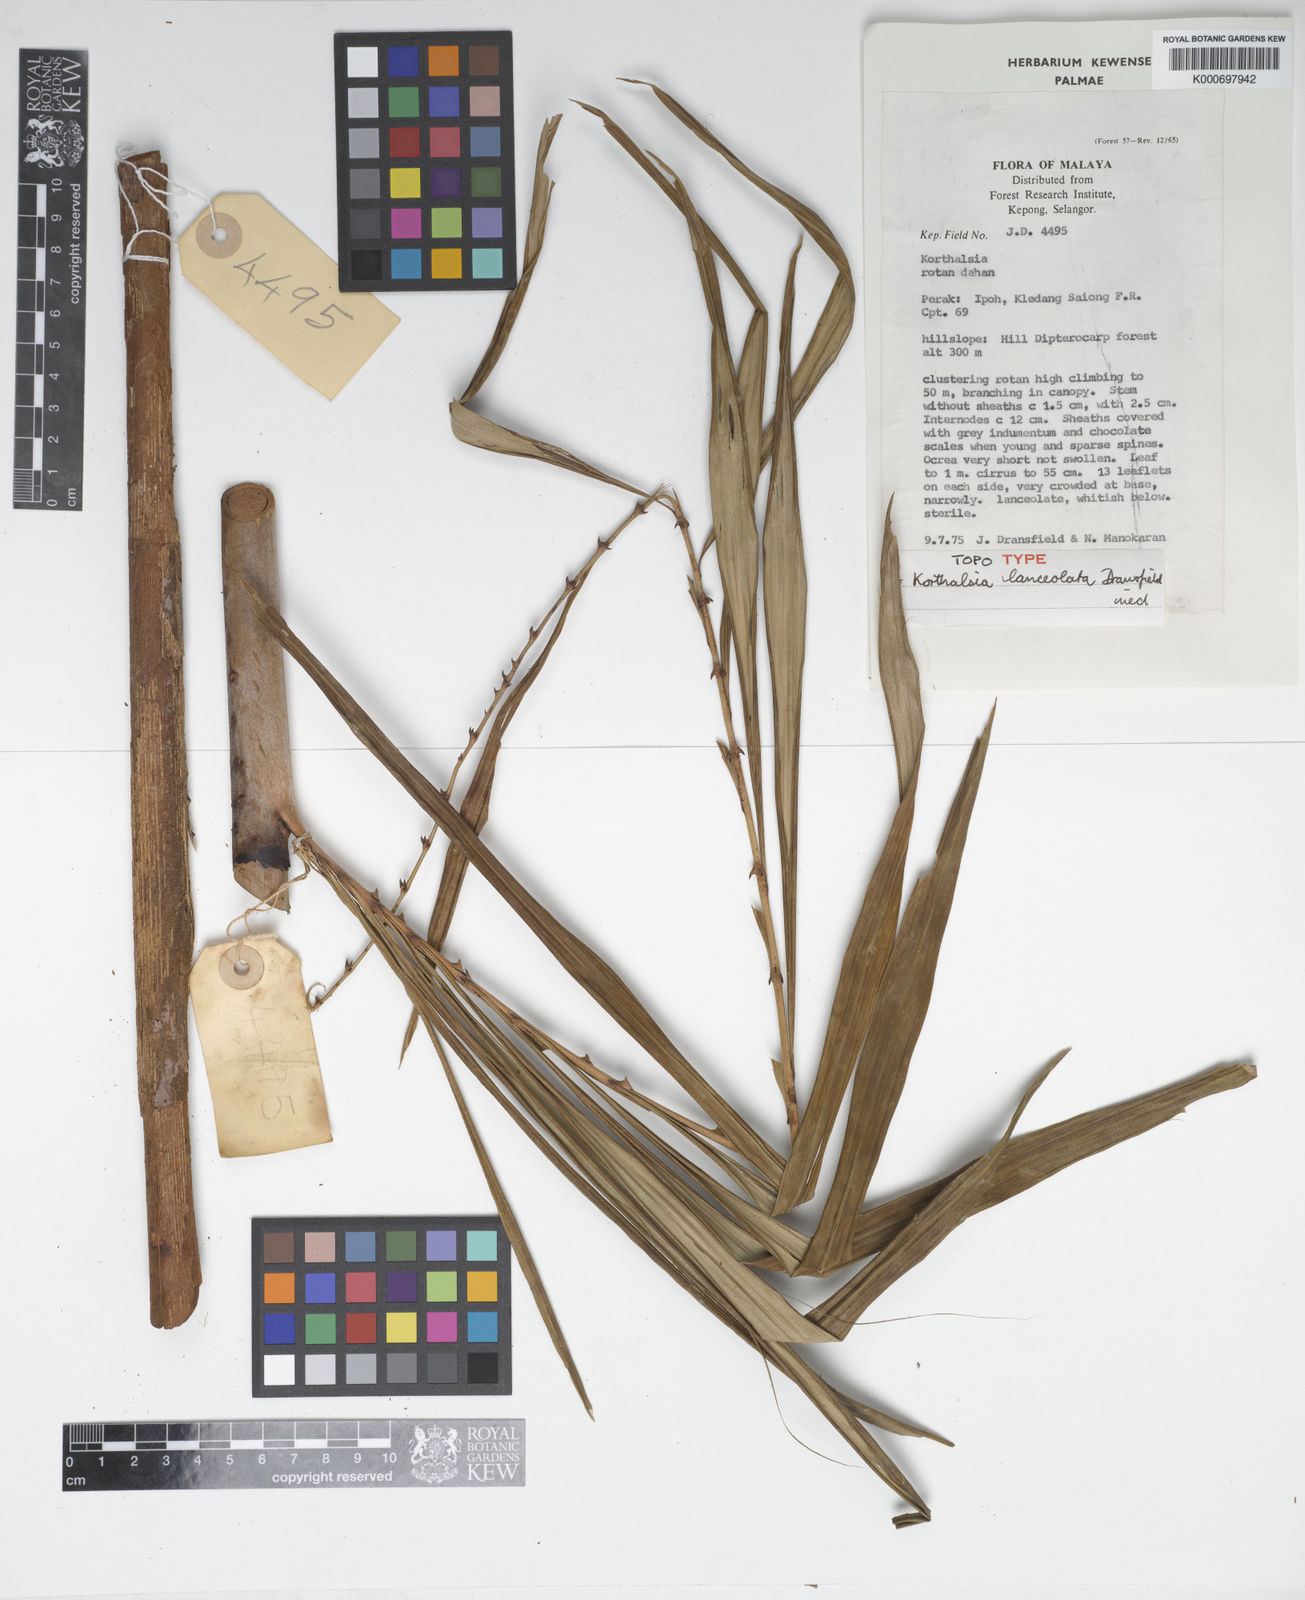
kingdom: Plantae
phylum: Tracheophyta
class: Liliopsida
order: Arecales
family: Arecaceae
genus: Korthalsia
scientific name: Korthalsia lanceolata
